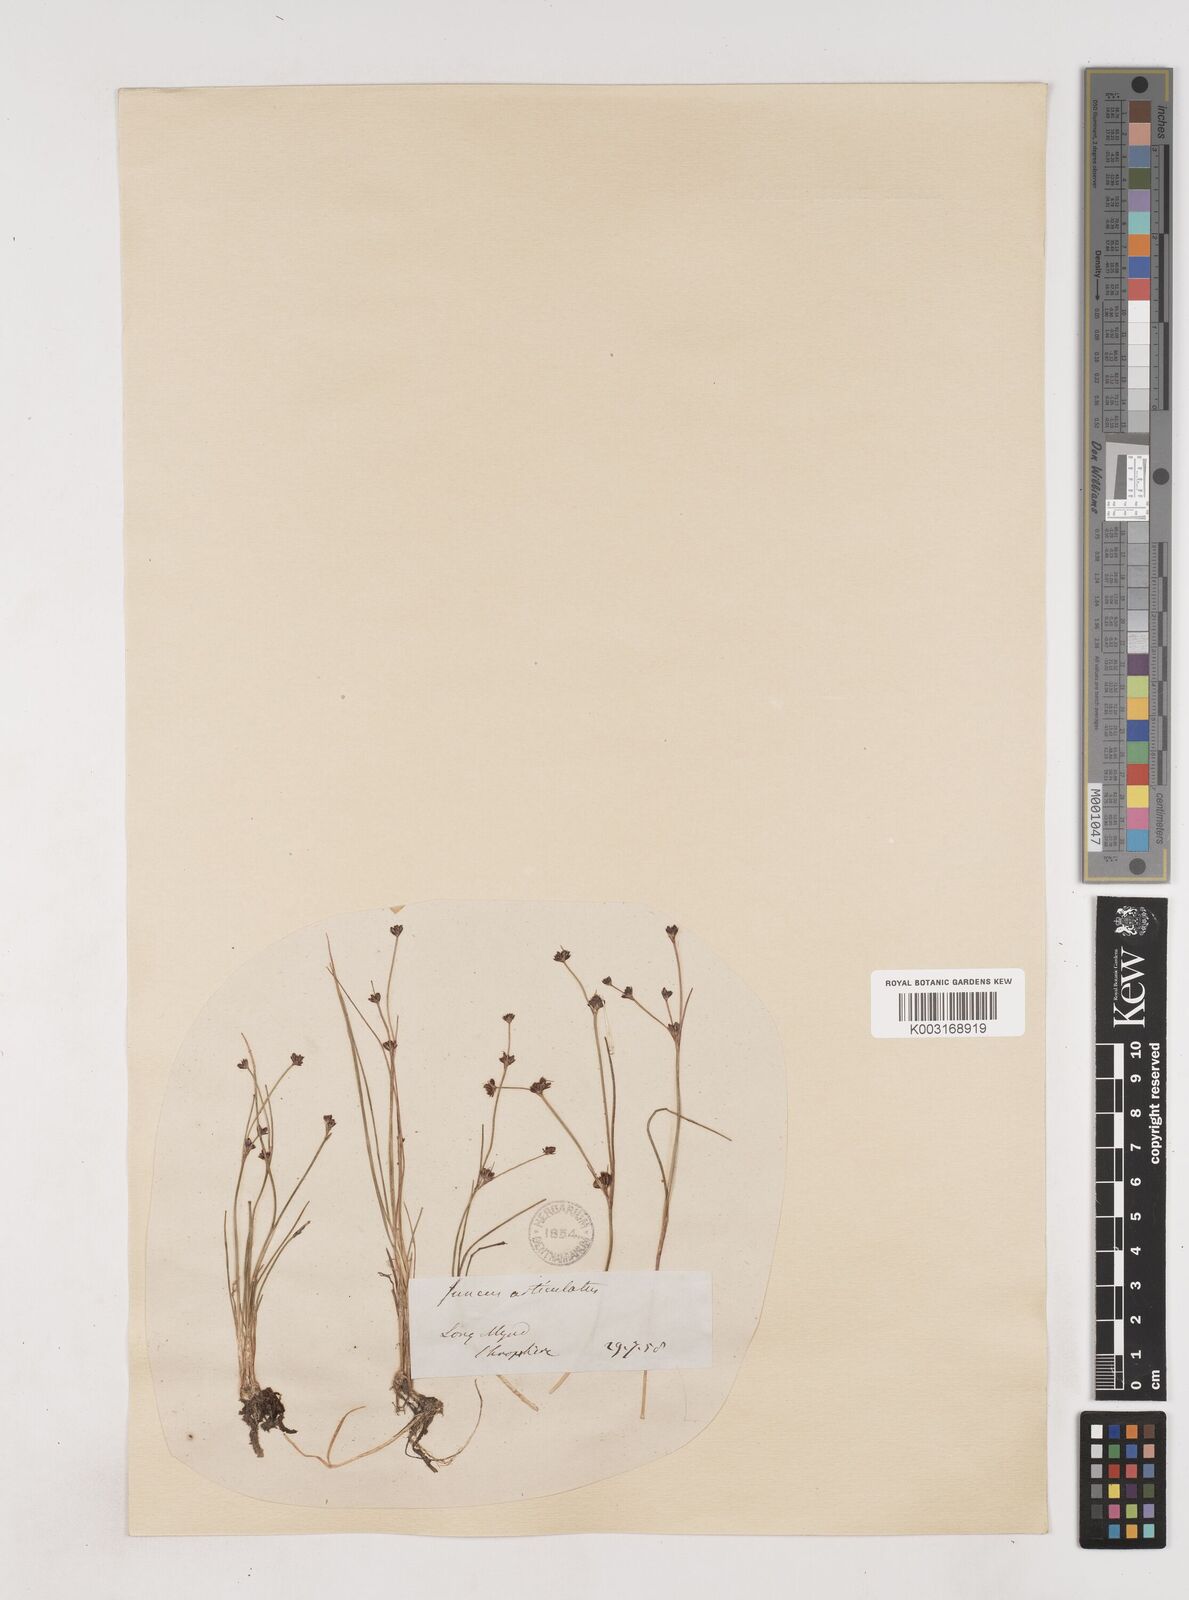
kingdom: Plantae
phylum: Tracheophyta
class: Liliopsida
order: Poales
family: Juncaceae
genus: Juncus
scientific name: Juncus bulbosus
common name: Bulbous rush
